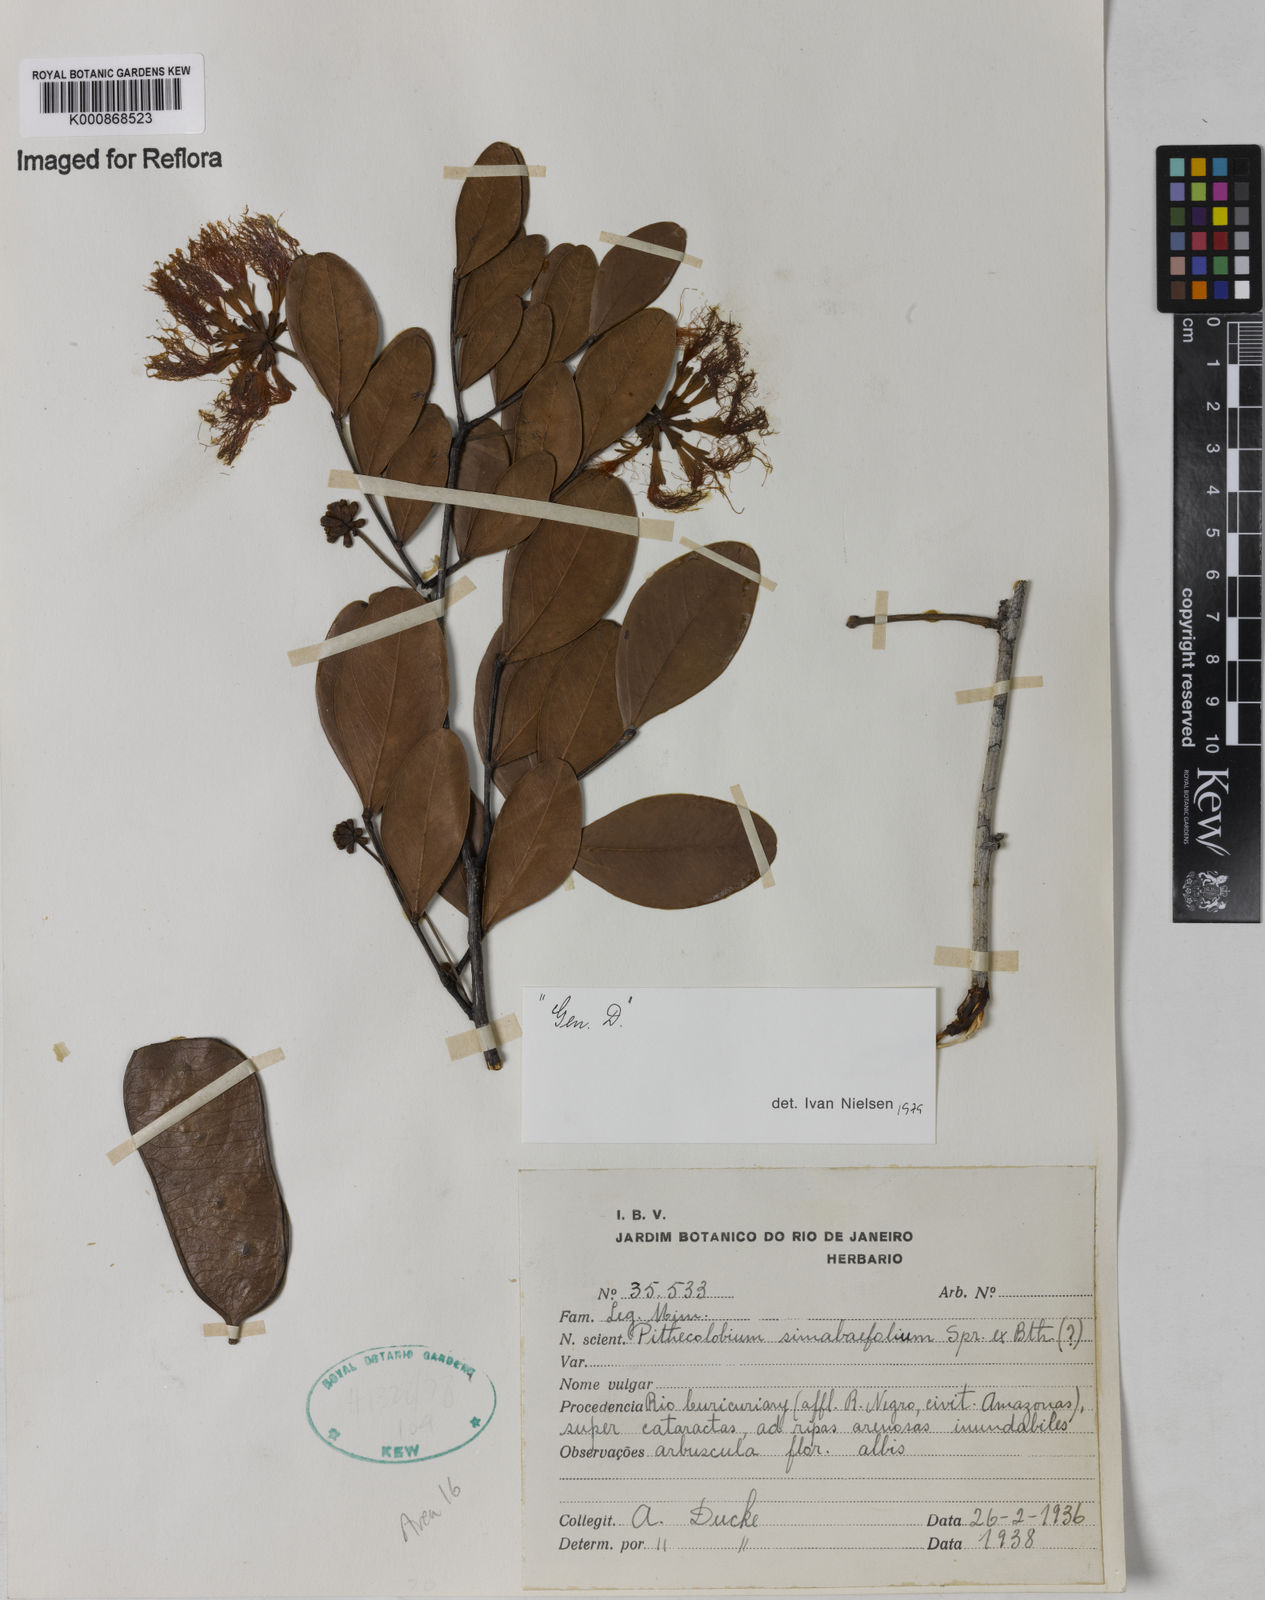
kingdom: Plantae
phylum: Tracheophyta
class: Magnoliopsida
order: Fabales
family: Fabaceae
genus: Macrosamanea
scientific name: Macrosamanea simabifolia
